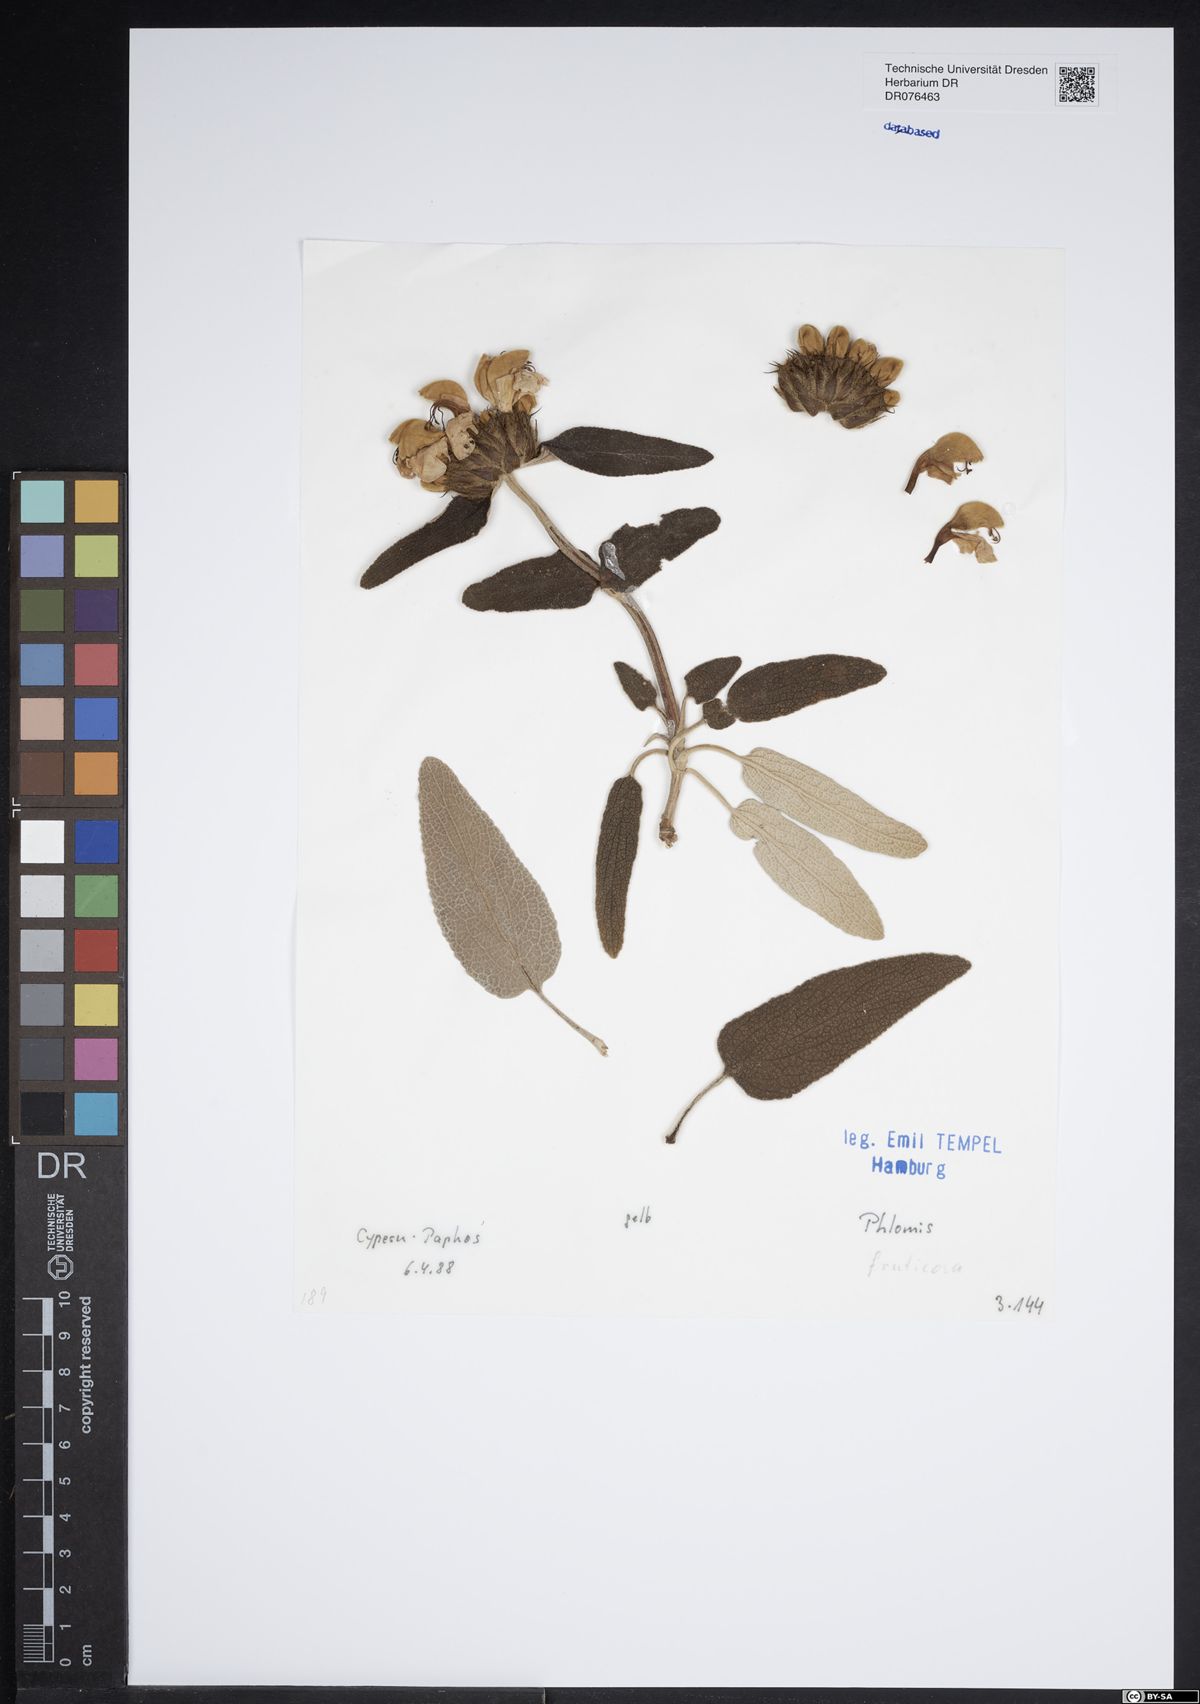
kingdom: Plantae
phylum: Tracheophyta
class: Magnoliopsida
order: Lamiales
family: Lamiaceae
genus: Phlomis
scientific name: Phlomis fruticosa
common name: Jerusalem sage
